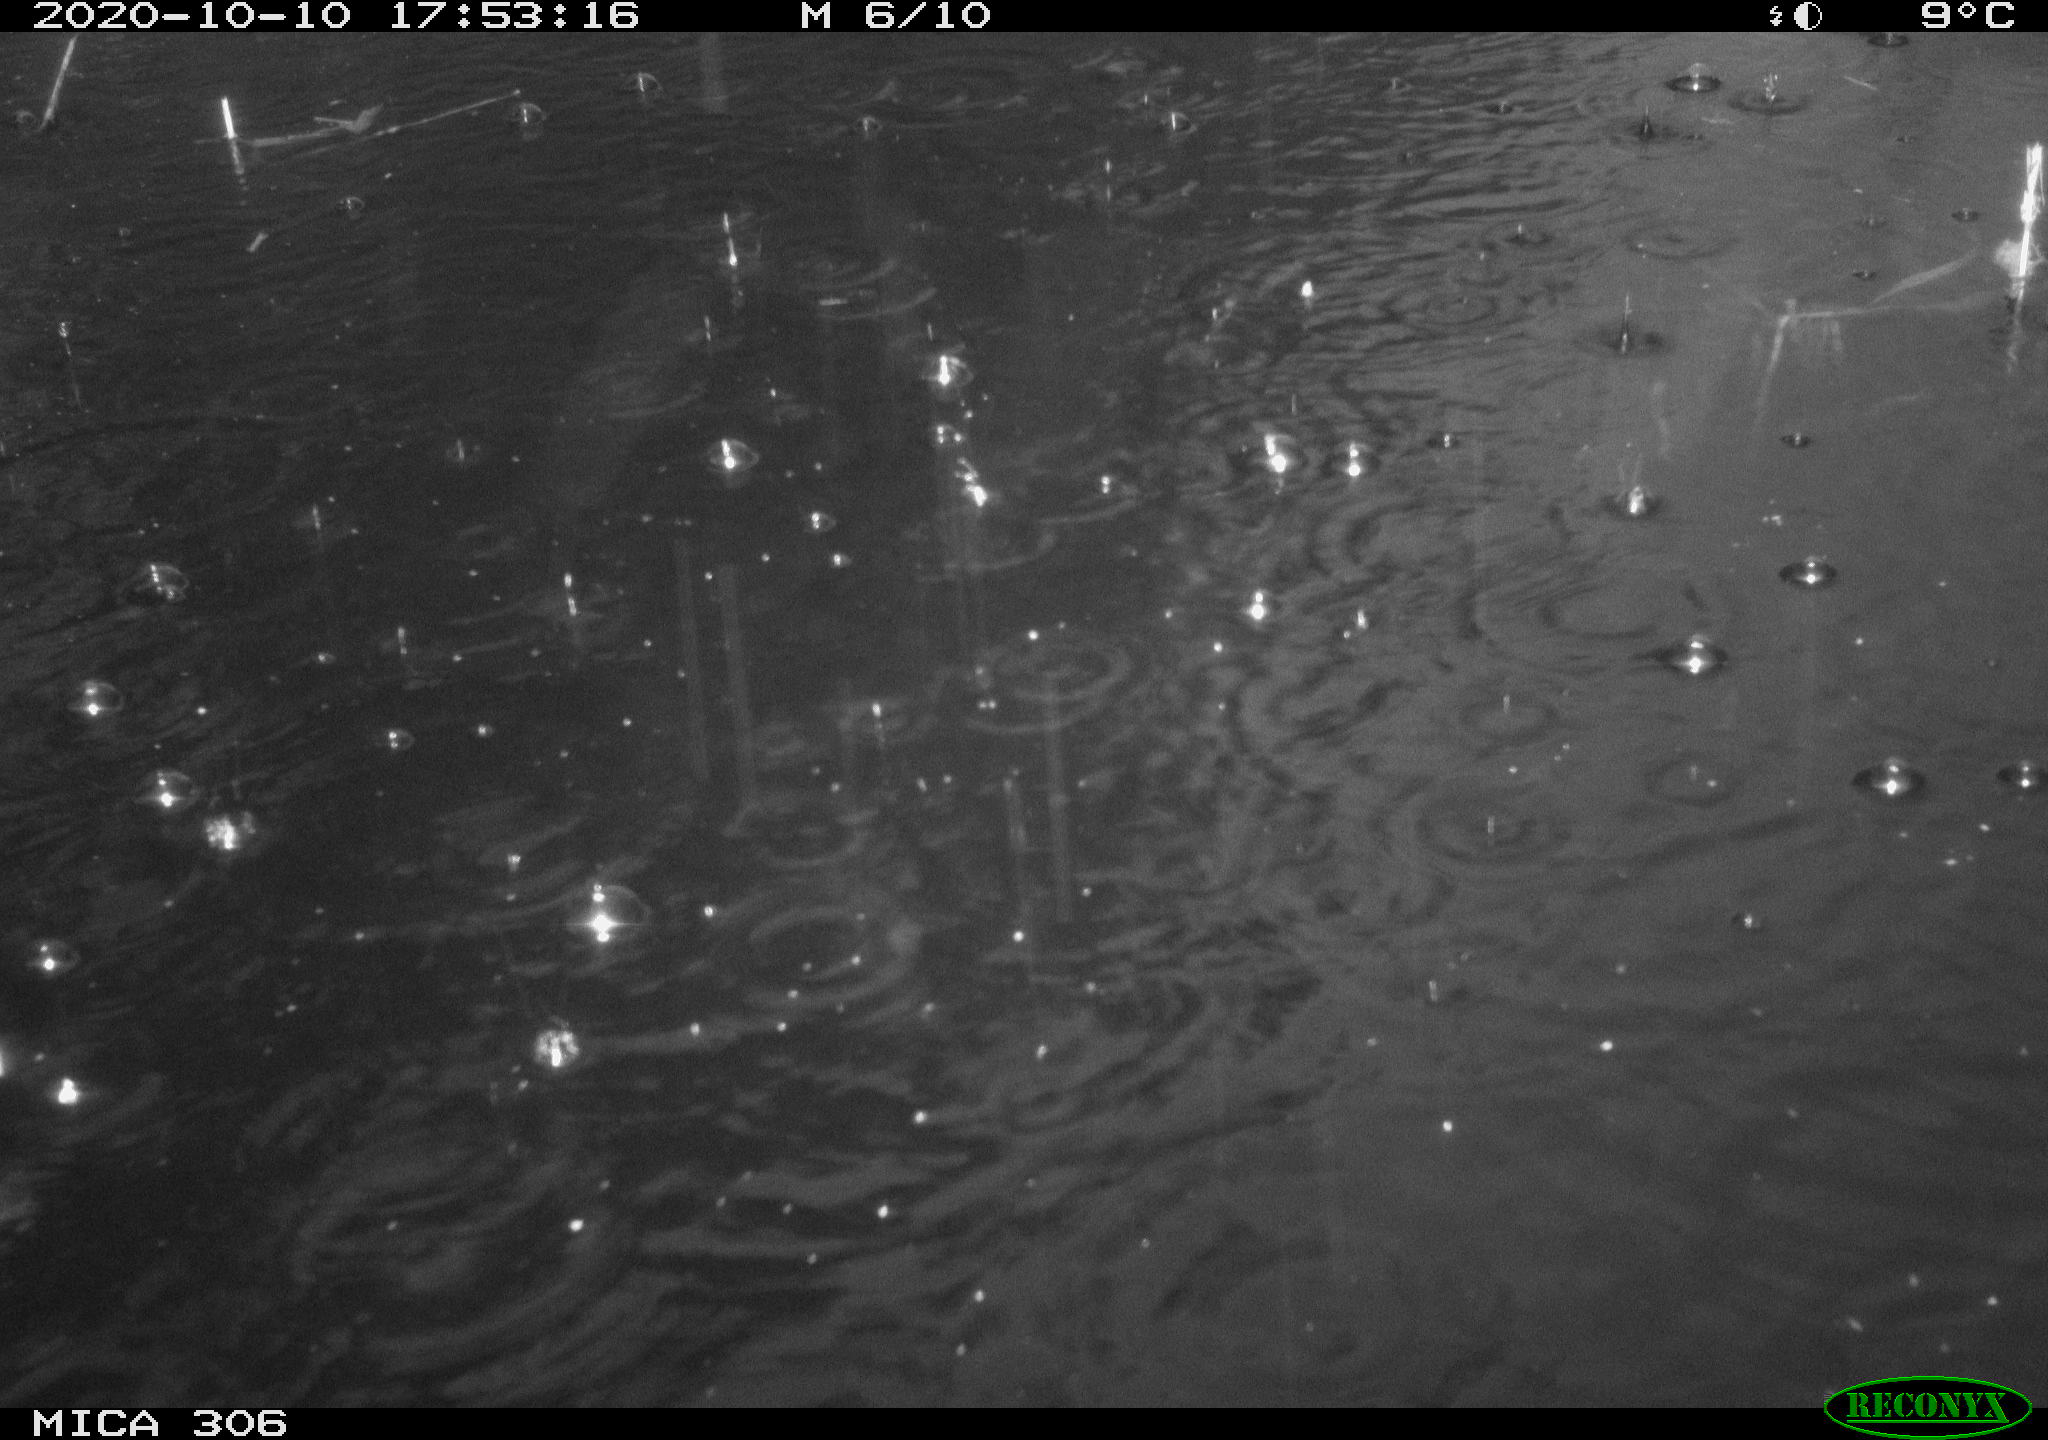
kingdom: Animalia
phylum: Chordata
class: Aves
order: Gruiformes
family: Rallidae
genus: Gallinula
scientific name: Gallinula chloropus
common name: Common moorhen
